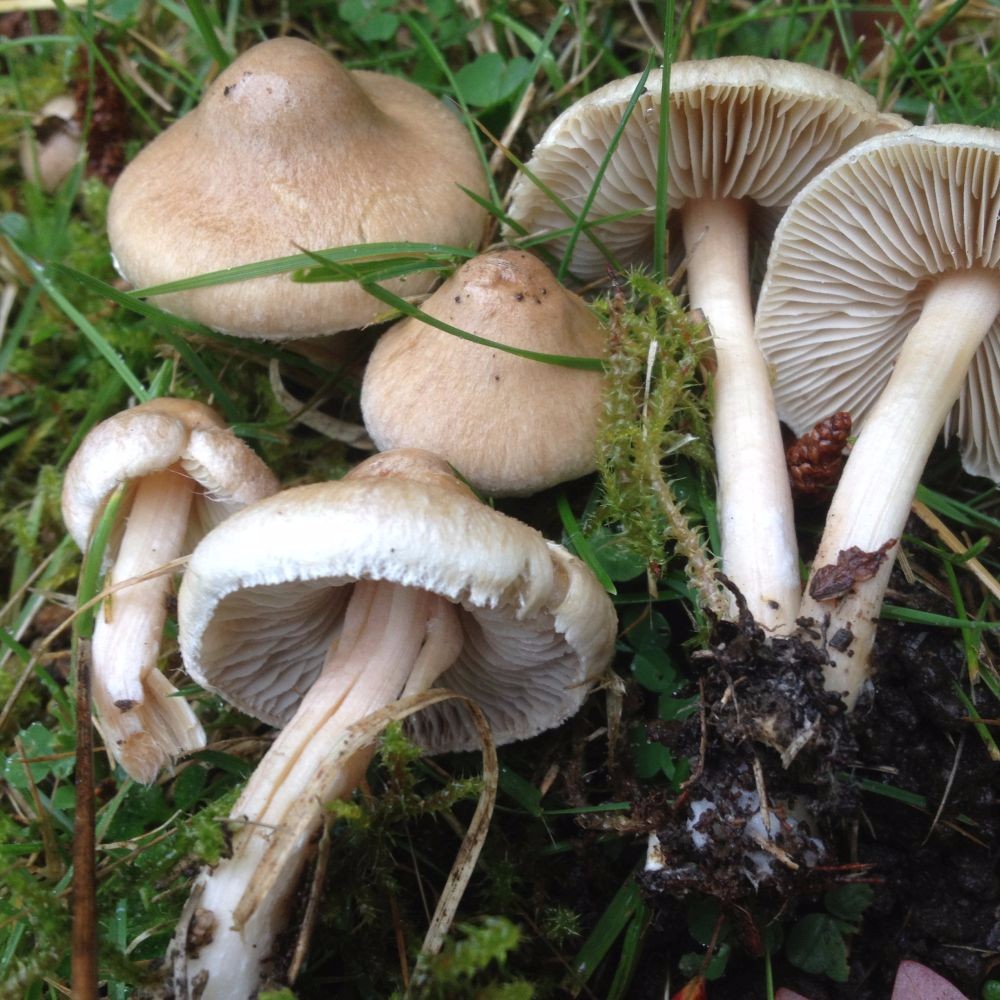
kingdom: Fungi
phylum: Basidiomycota
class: Agaricomycetes
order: Agaricales
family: Inocybaceae
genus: Inocybe
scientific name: Inocybe sindonia
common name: bleg trævlhat
